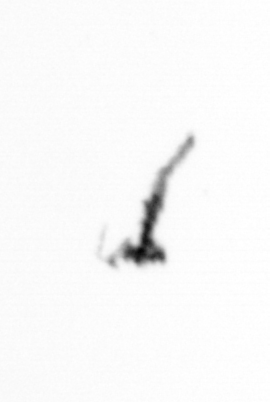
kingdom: Animalia
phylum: Arthropoda
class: Copepoda
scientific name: Copepoda
